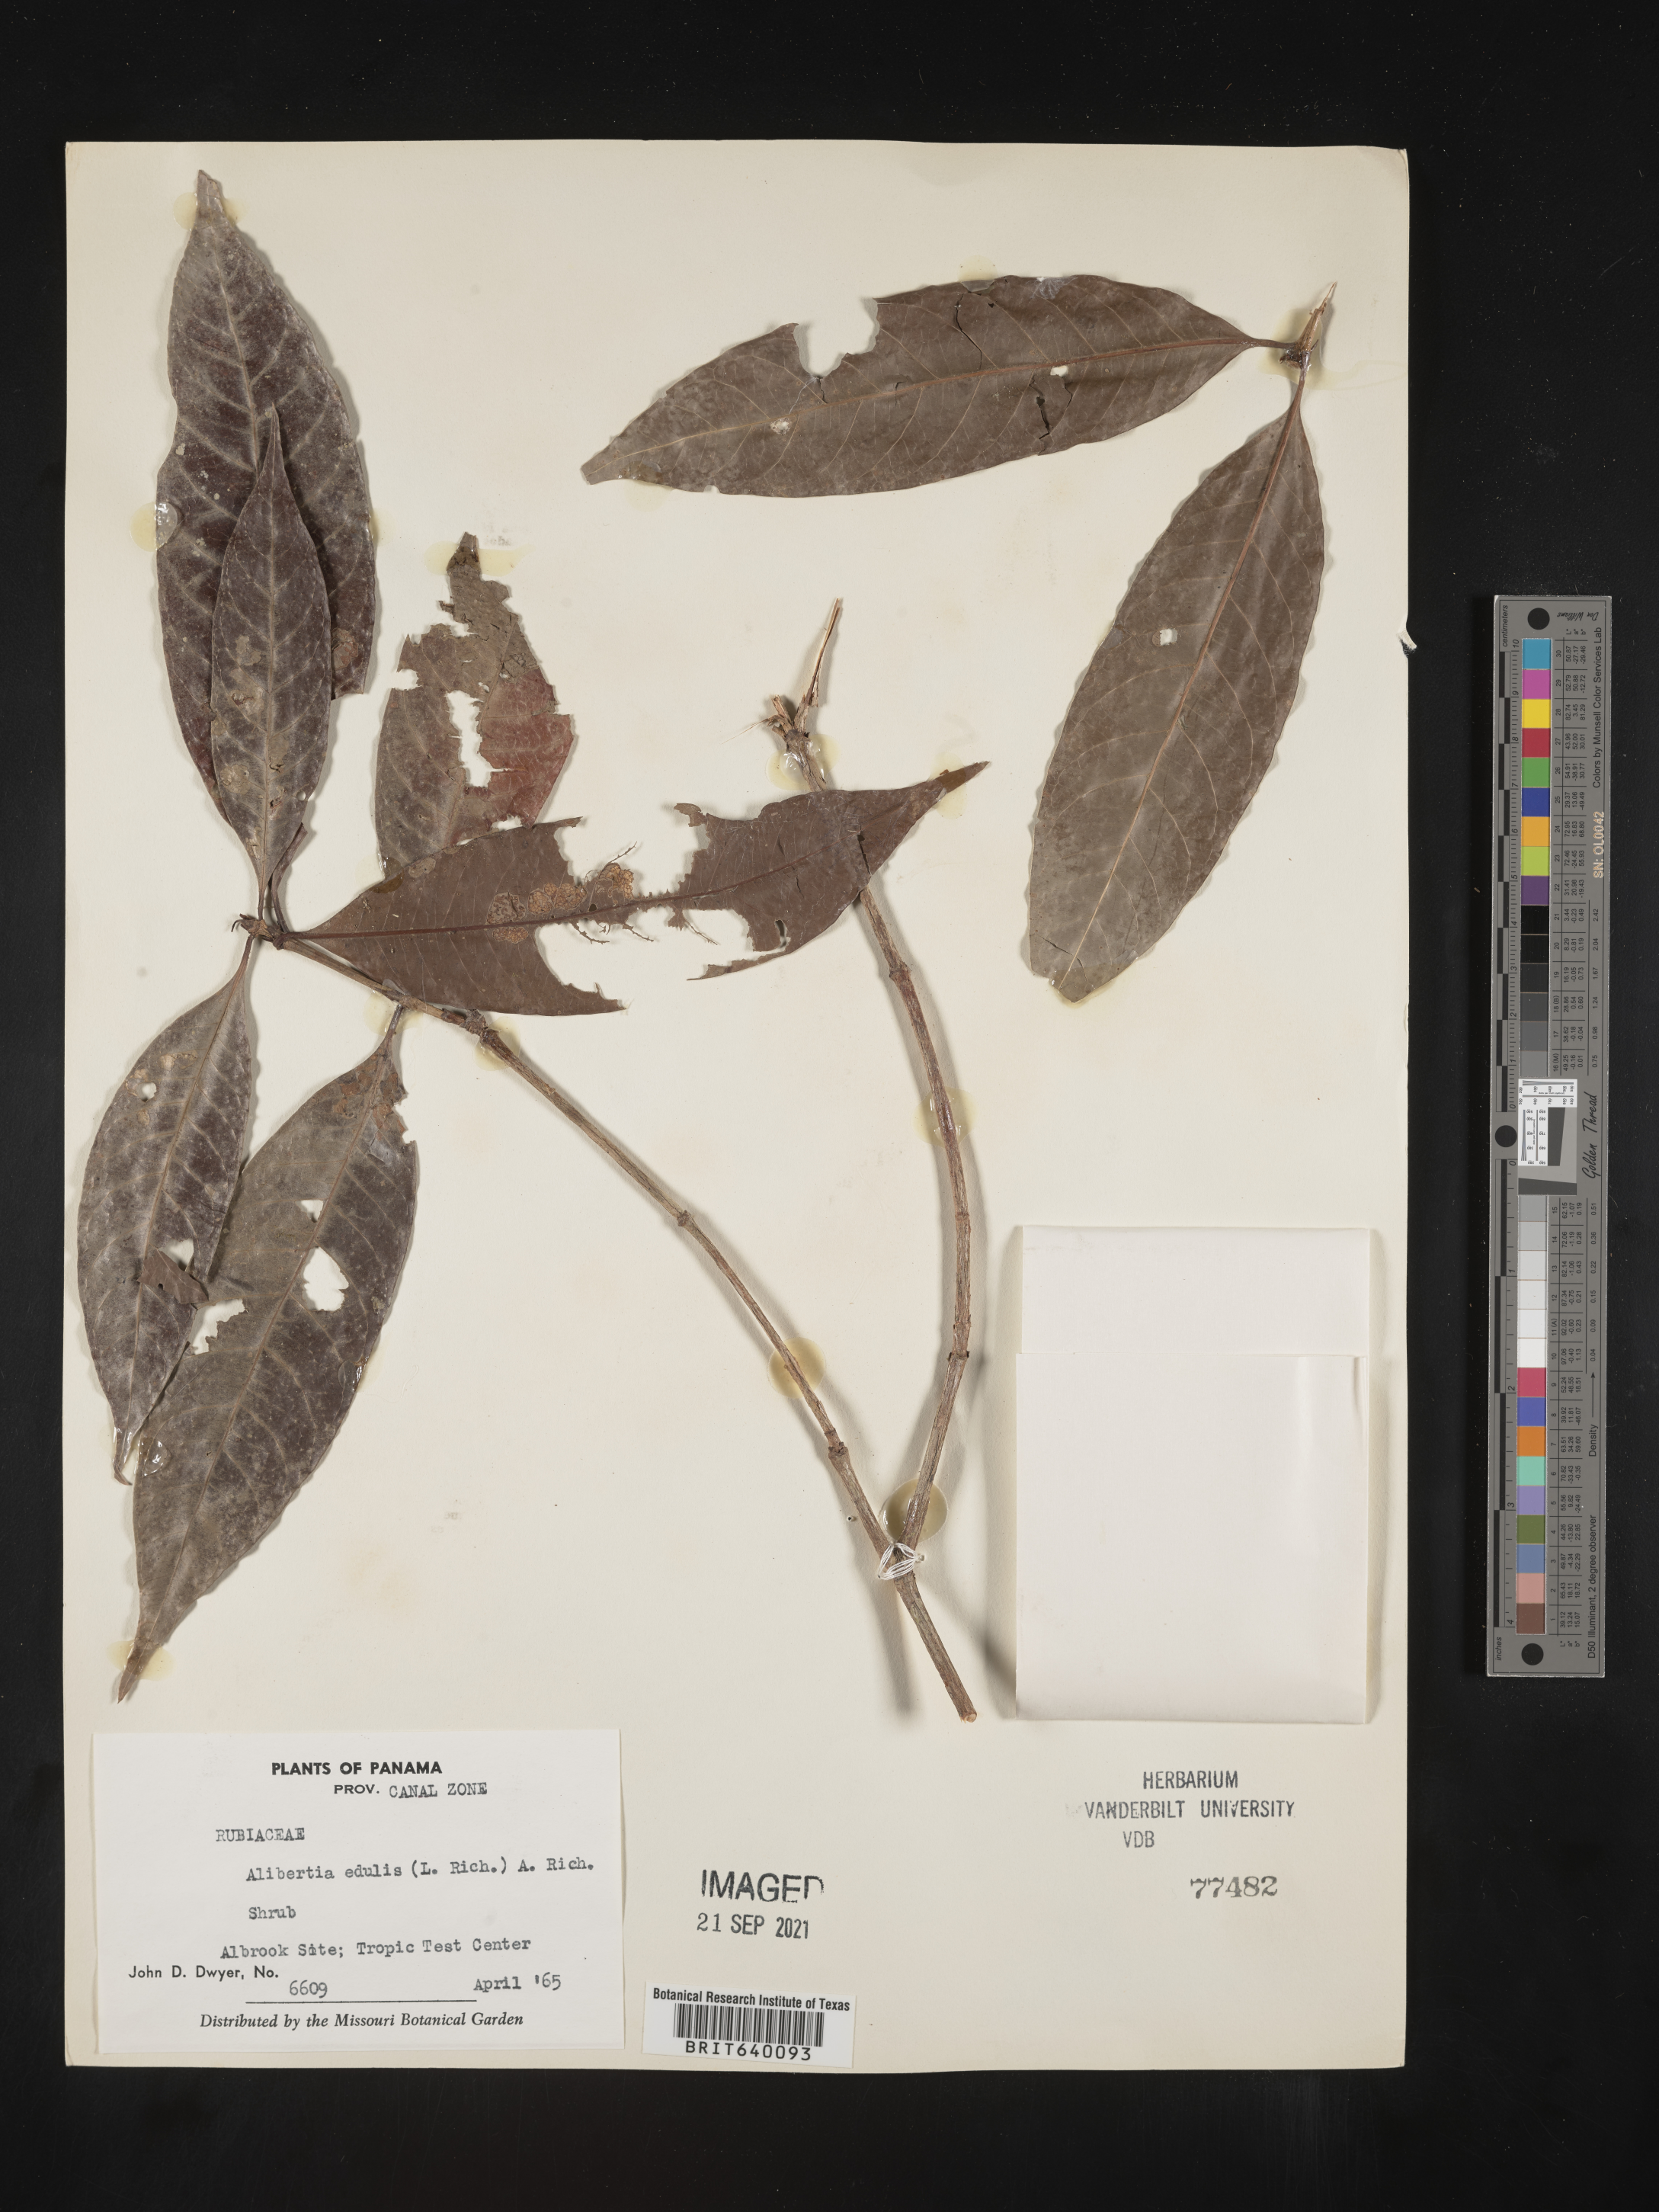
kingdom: Plantae
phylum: Tracheophyta
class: Magnoliopsida
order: Gentianales
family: Rubiaceae
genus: Alibertia
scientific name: Alibertia
